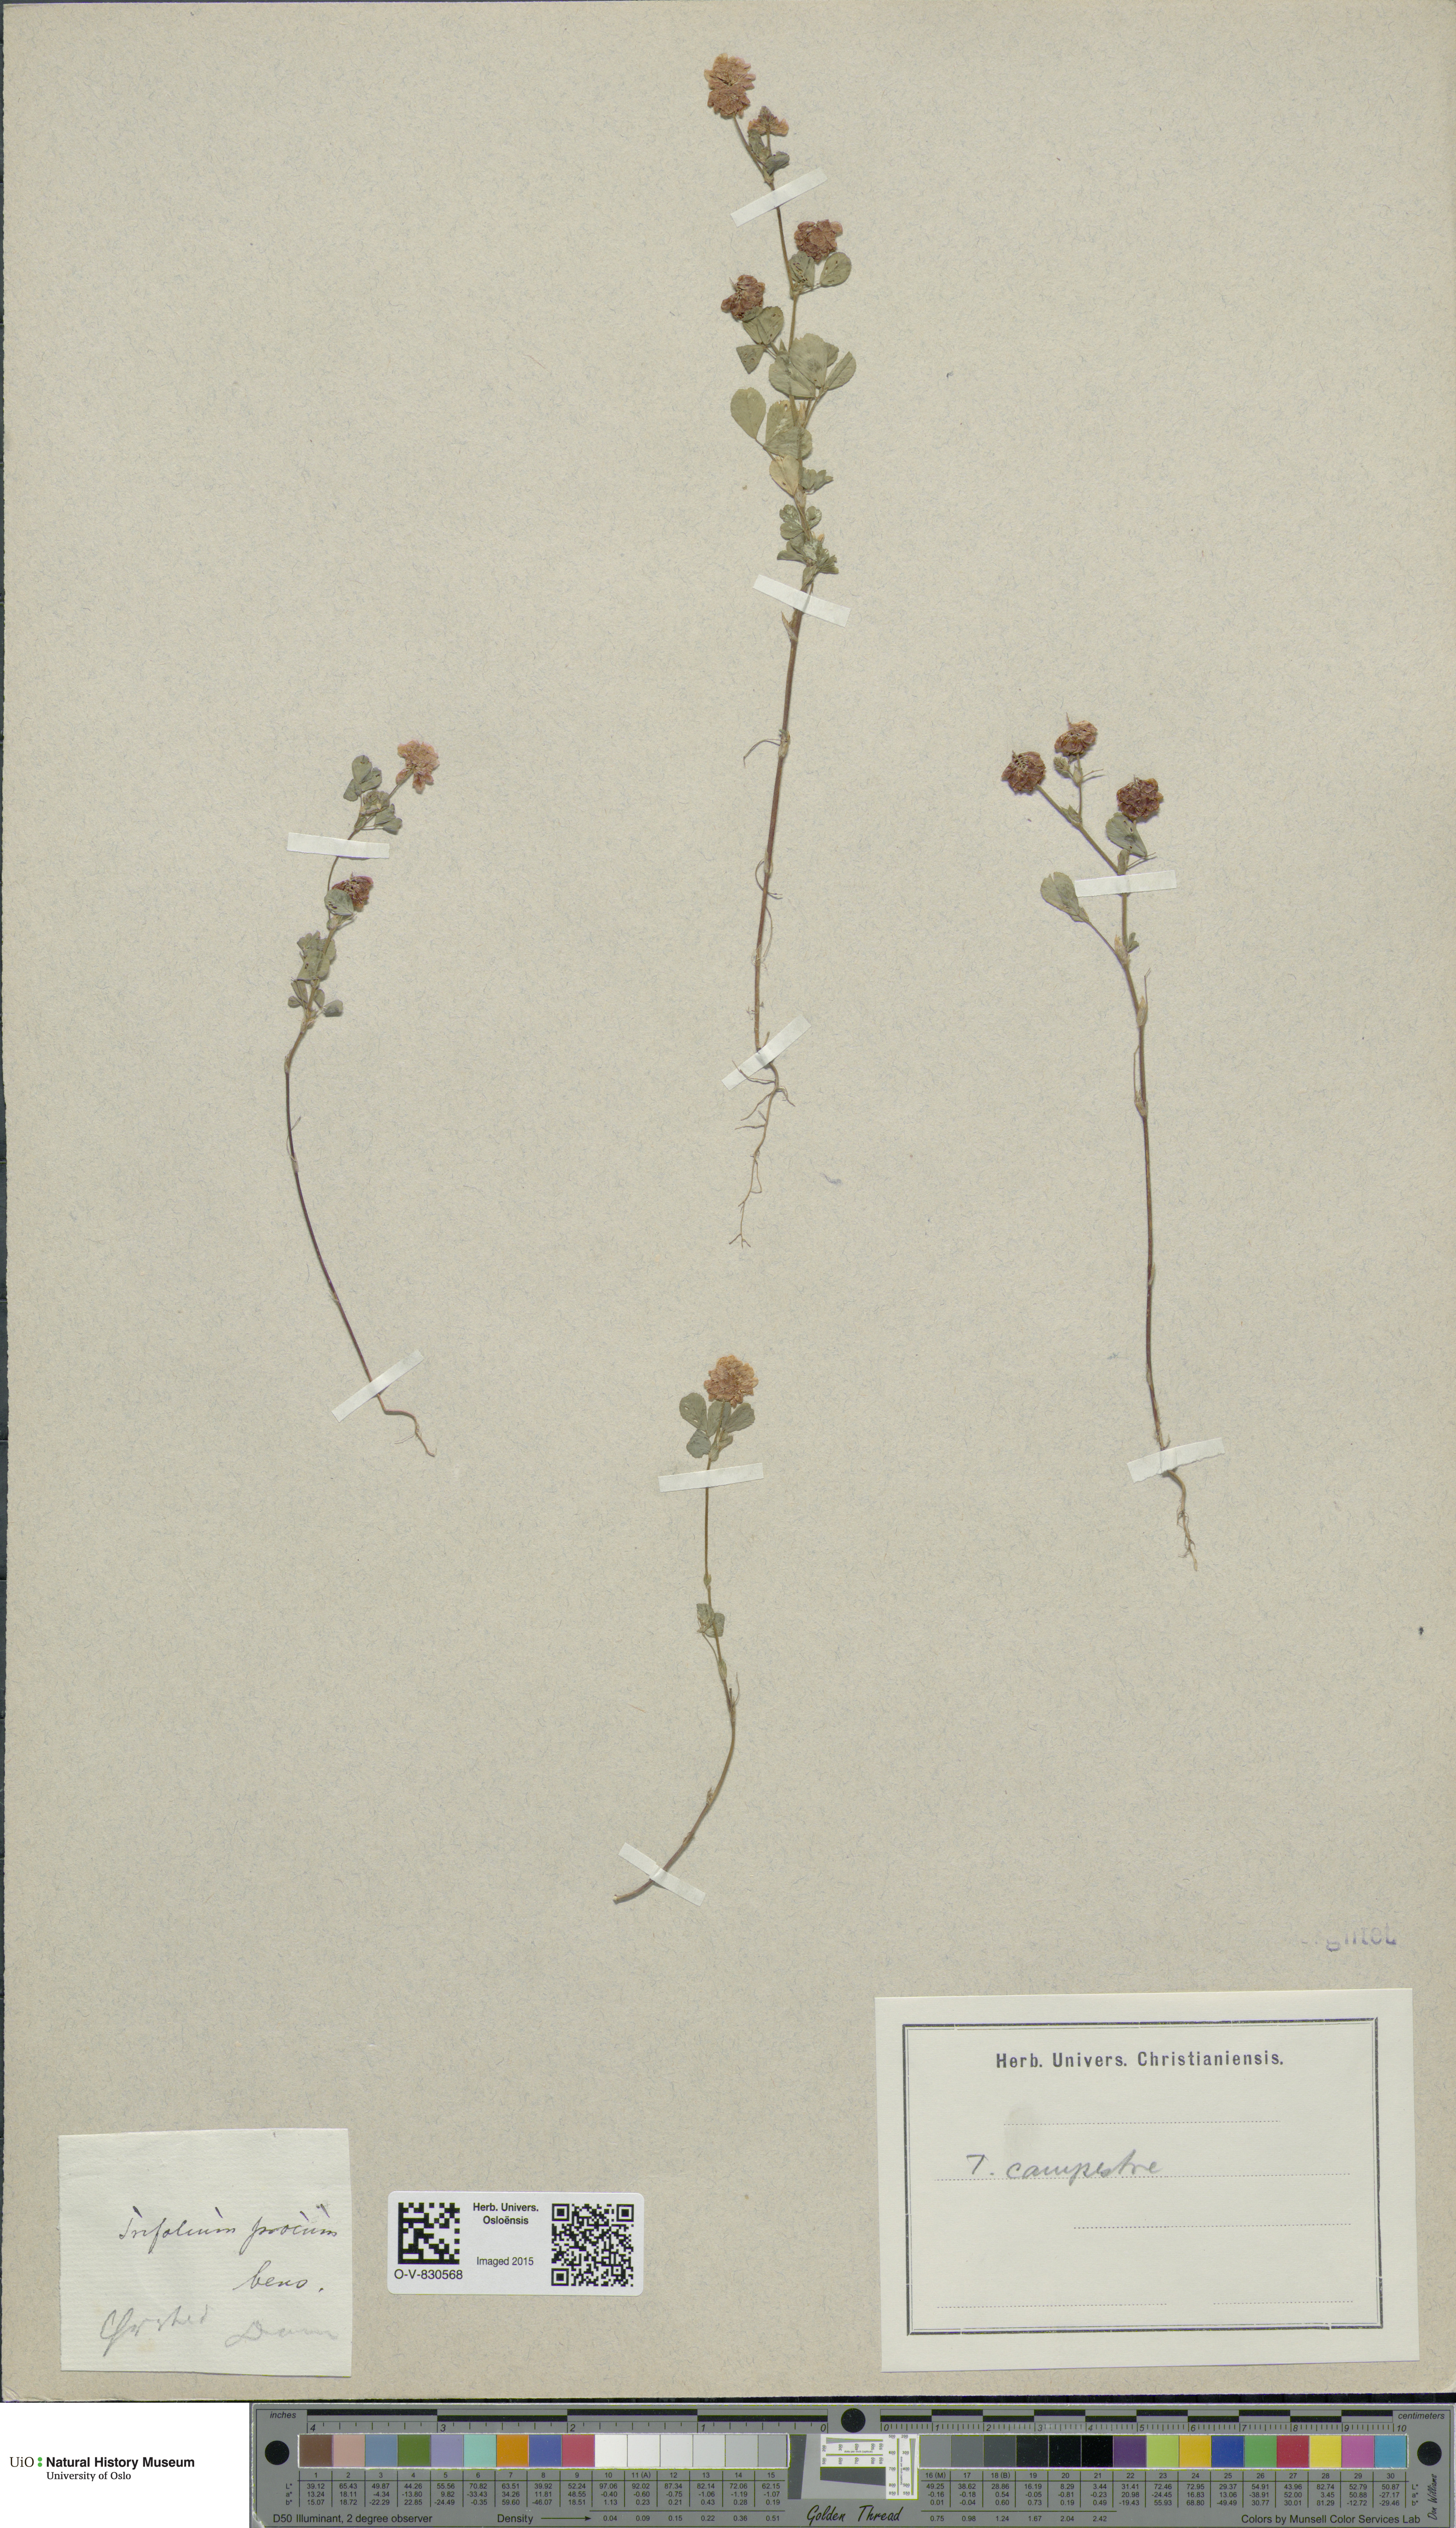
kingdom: Plantae
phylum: Tracheophyta
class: Magnoliopsida
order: Fabales
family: Fabaceae
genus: Trifolium
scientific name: Trifolium campestre
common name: Field clover
